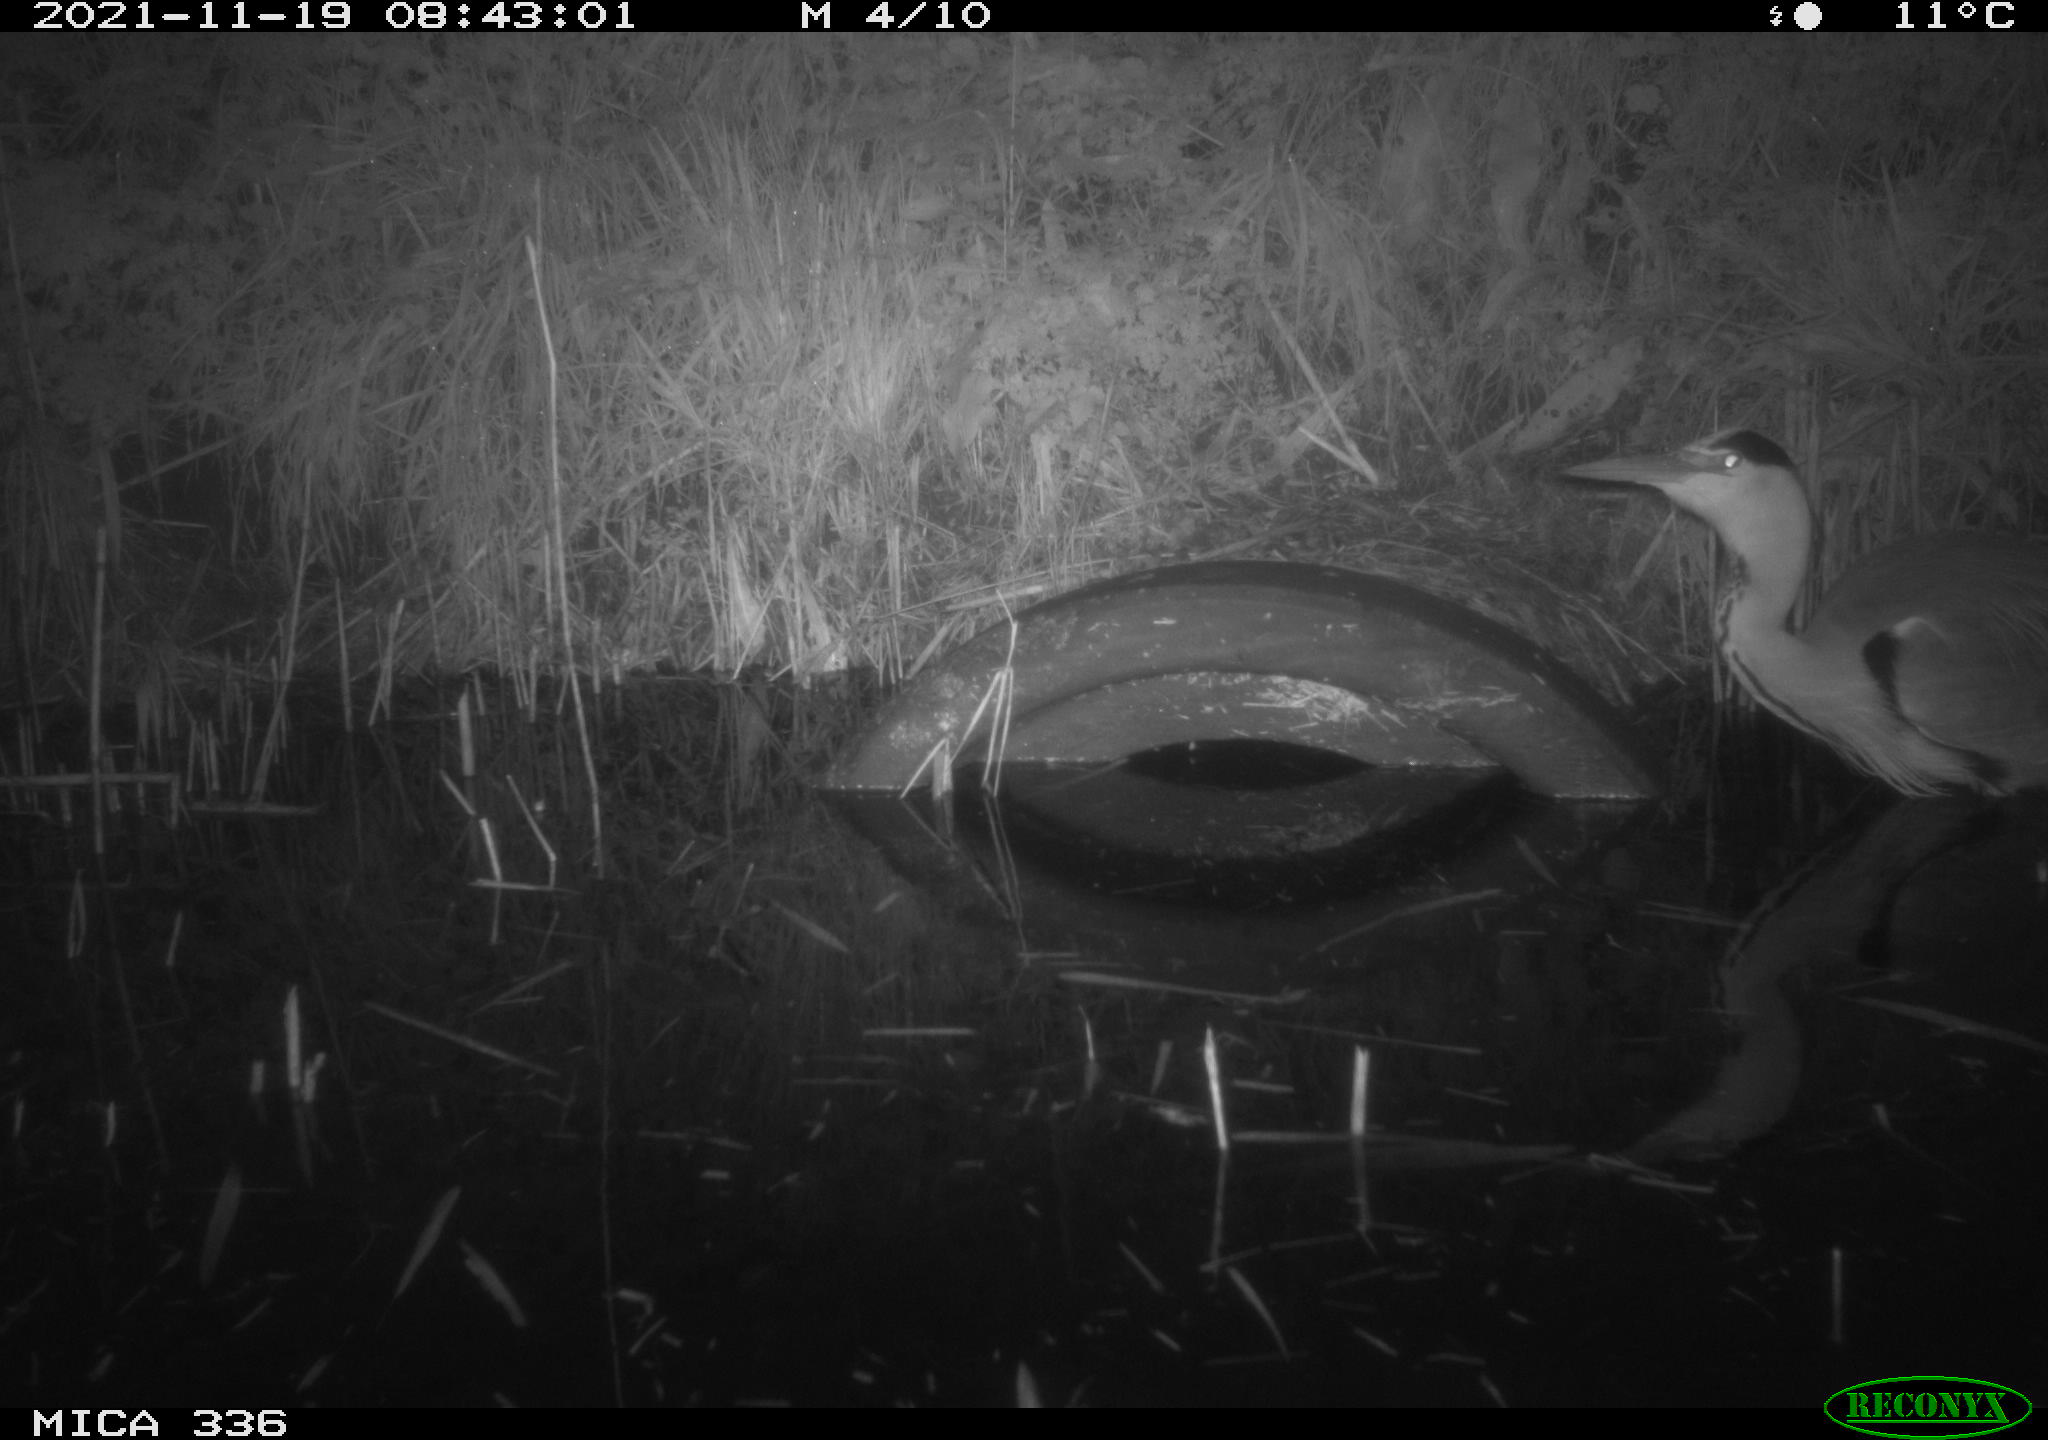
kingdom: Animalia
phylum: Chordata
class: Aves
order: Pelecaniformes
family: Ardeidae
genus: Ardea
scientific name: Ardea cinerea
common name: Grey heron
